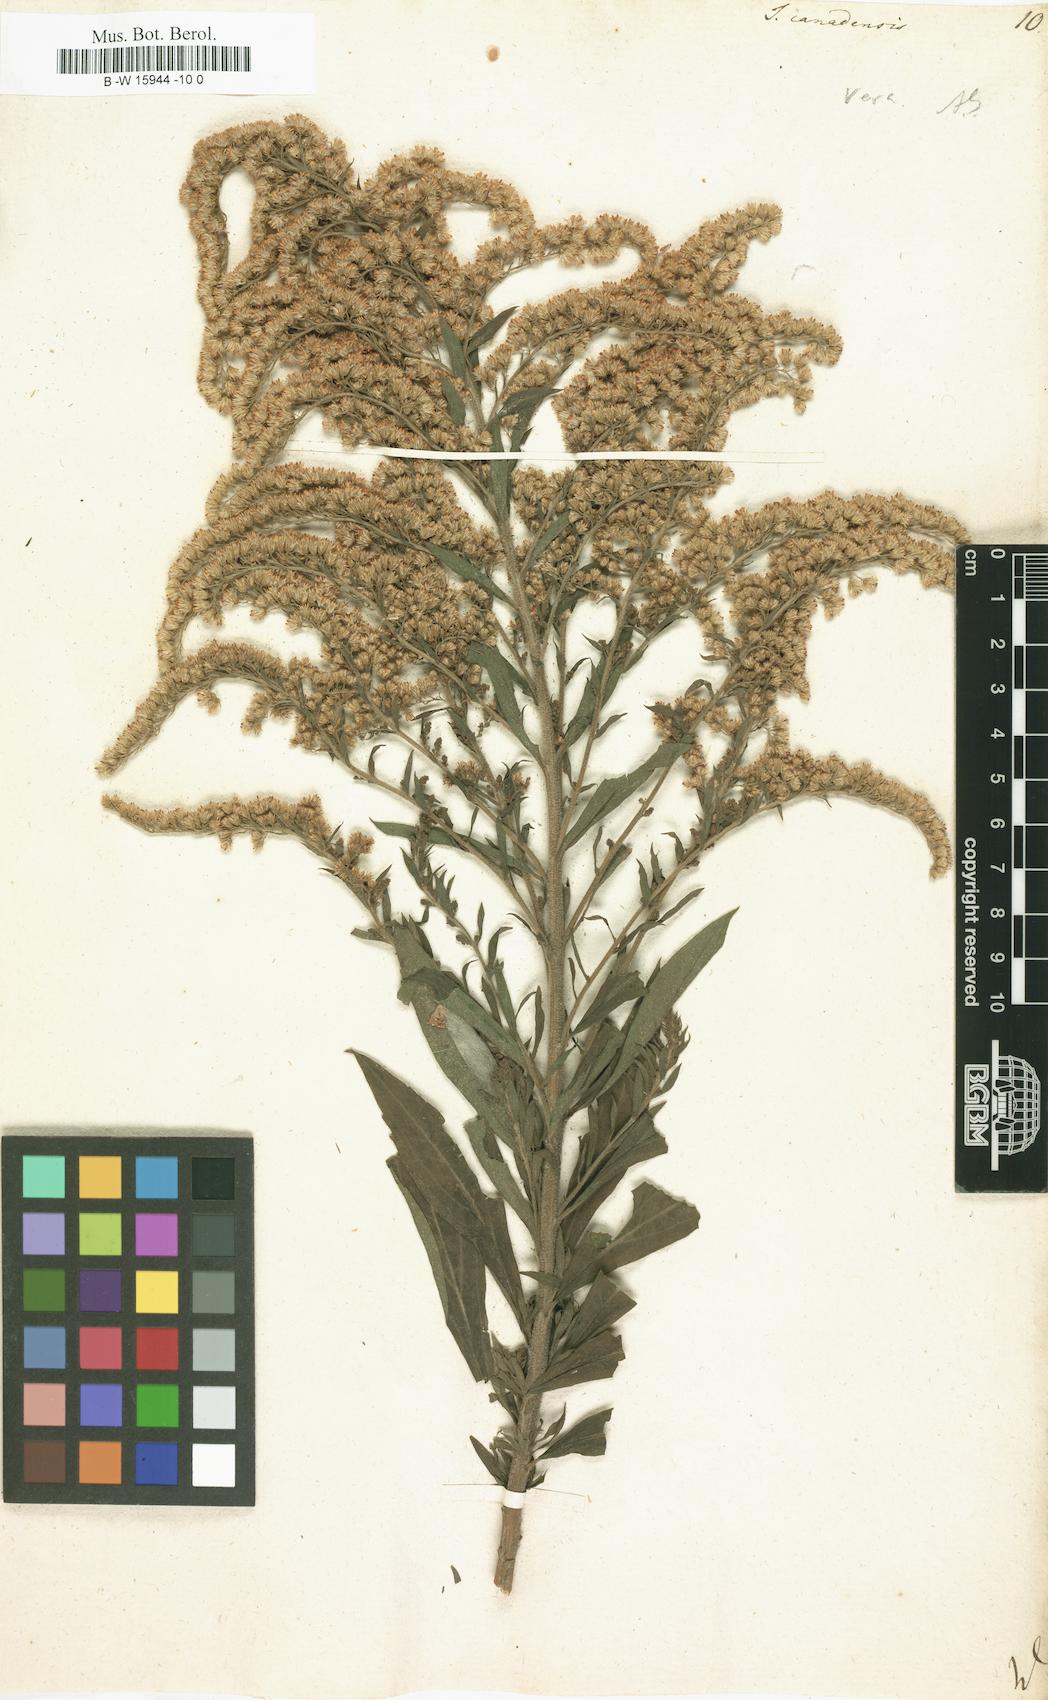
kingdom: Plantae
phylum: Tracheophyta
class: Magnoliopsida
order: Asterales
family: Asteraceae
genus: Solidago
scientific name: Solidago canadensis
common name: Canada goldenrod
